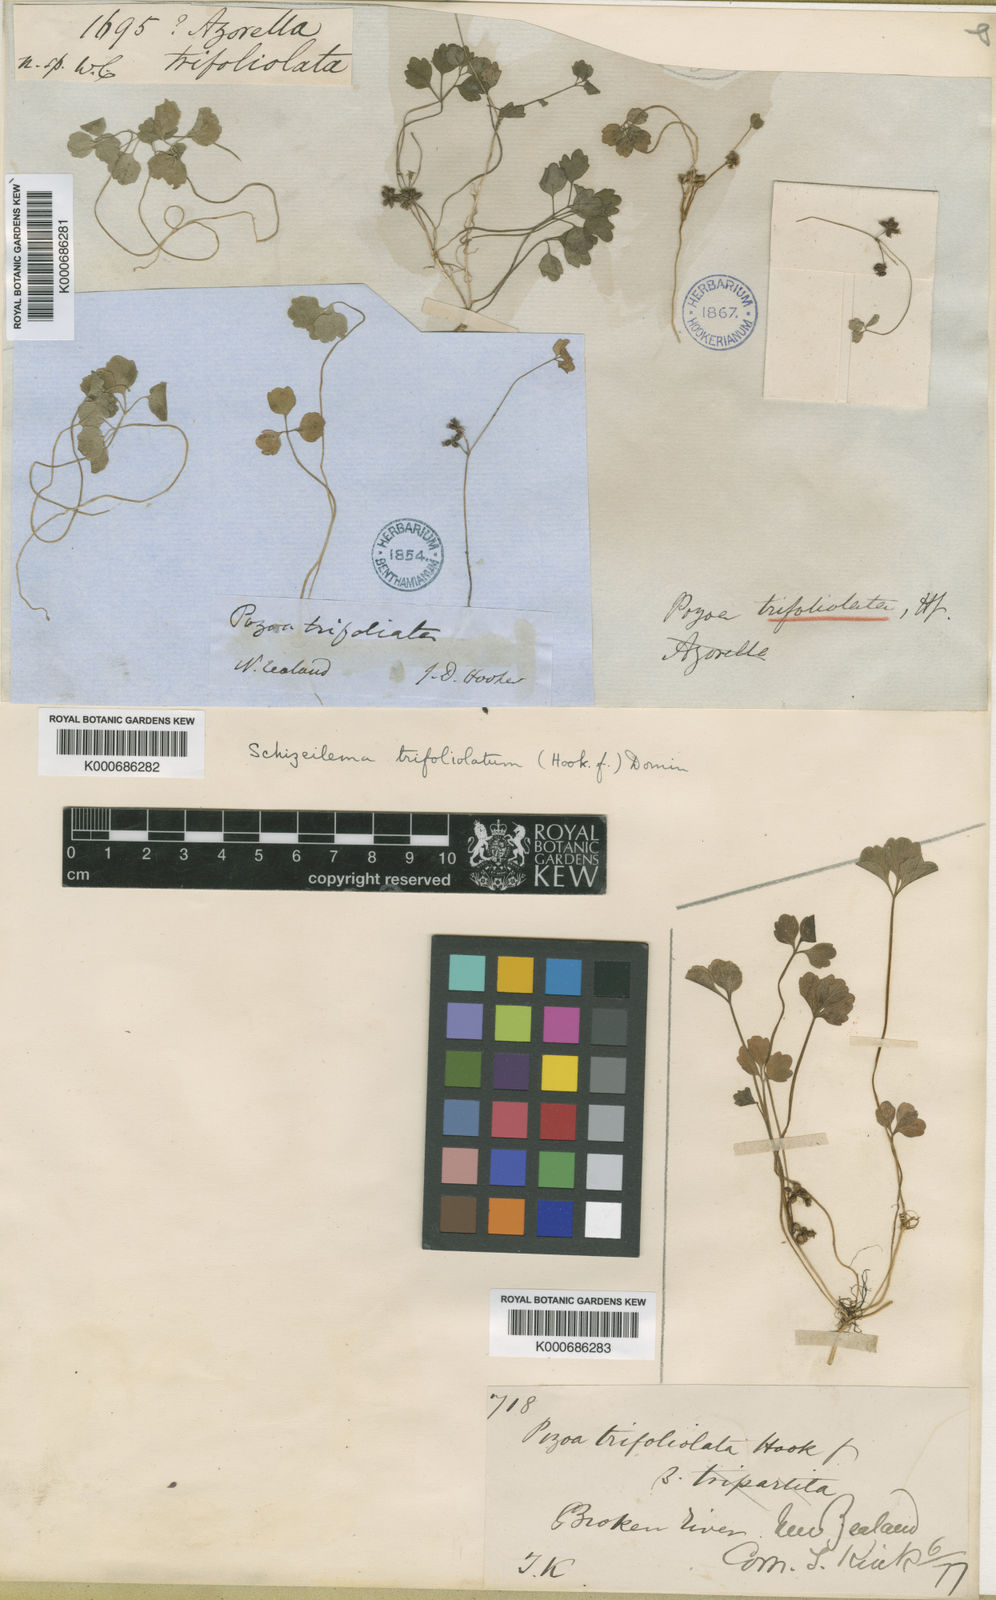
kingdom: Plantae
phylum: Tracheophyta
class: Magnoliopsida
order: Apiales
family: Apiaceae
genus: Azorella
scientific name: Azorella hookeri
